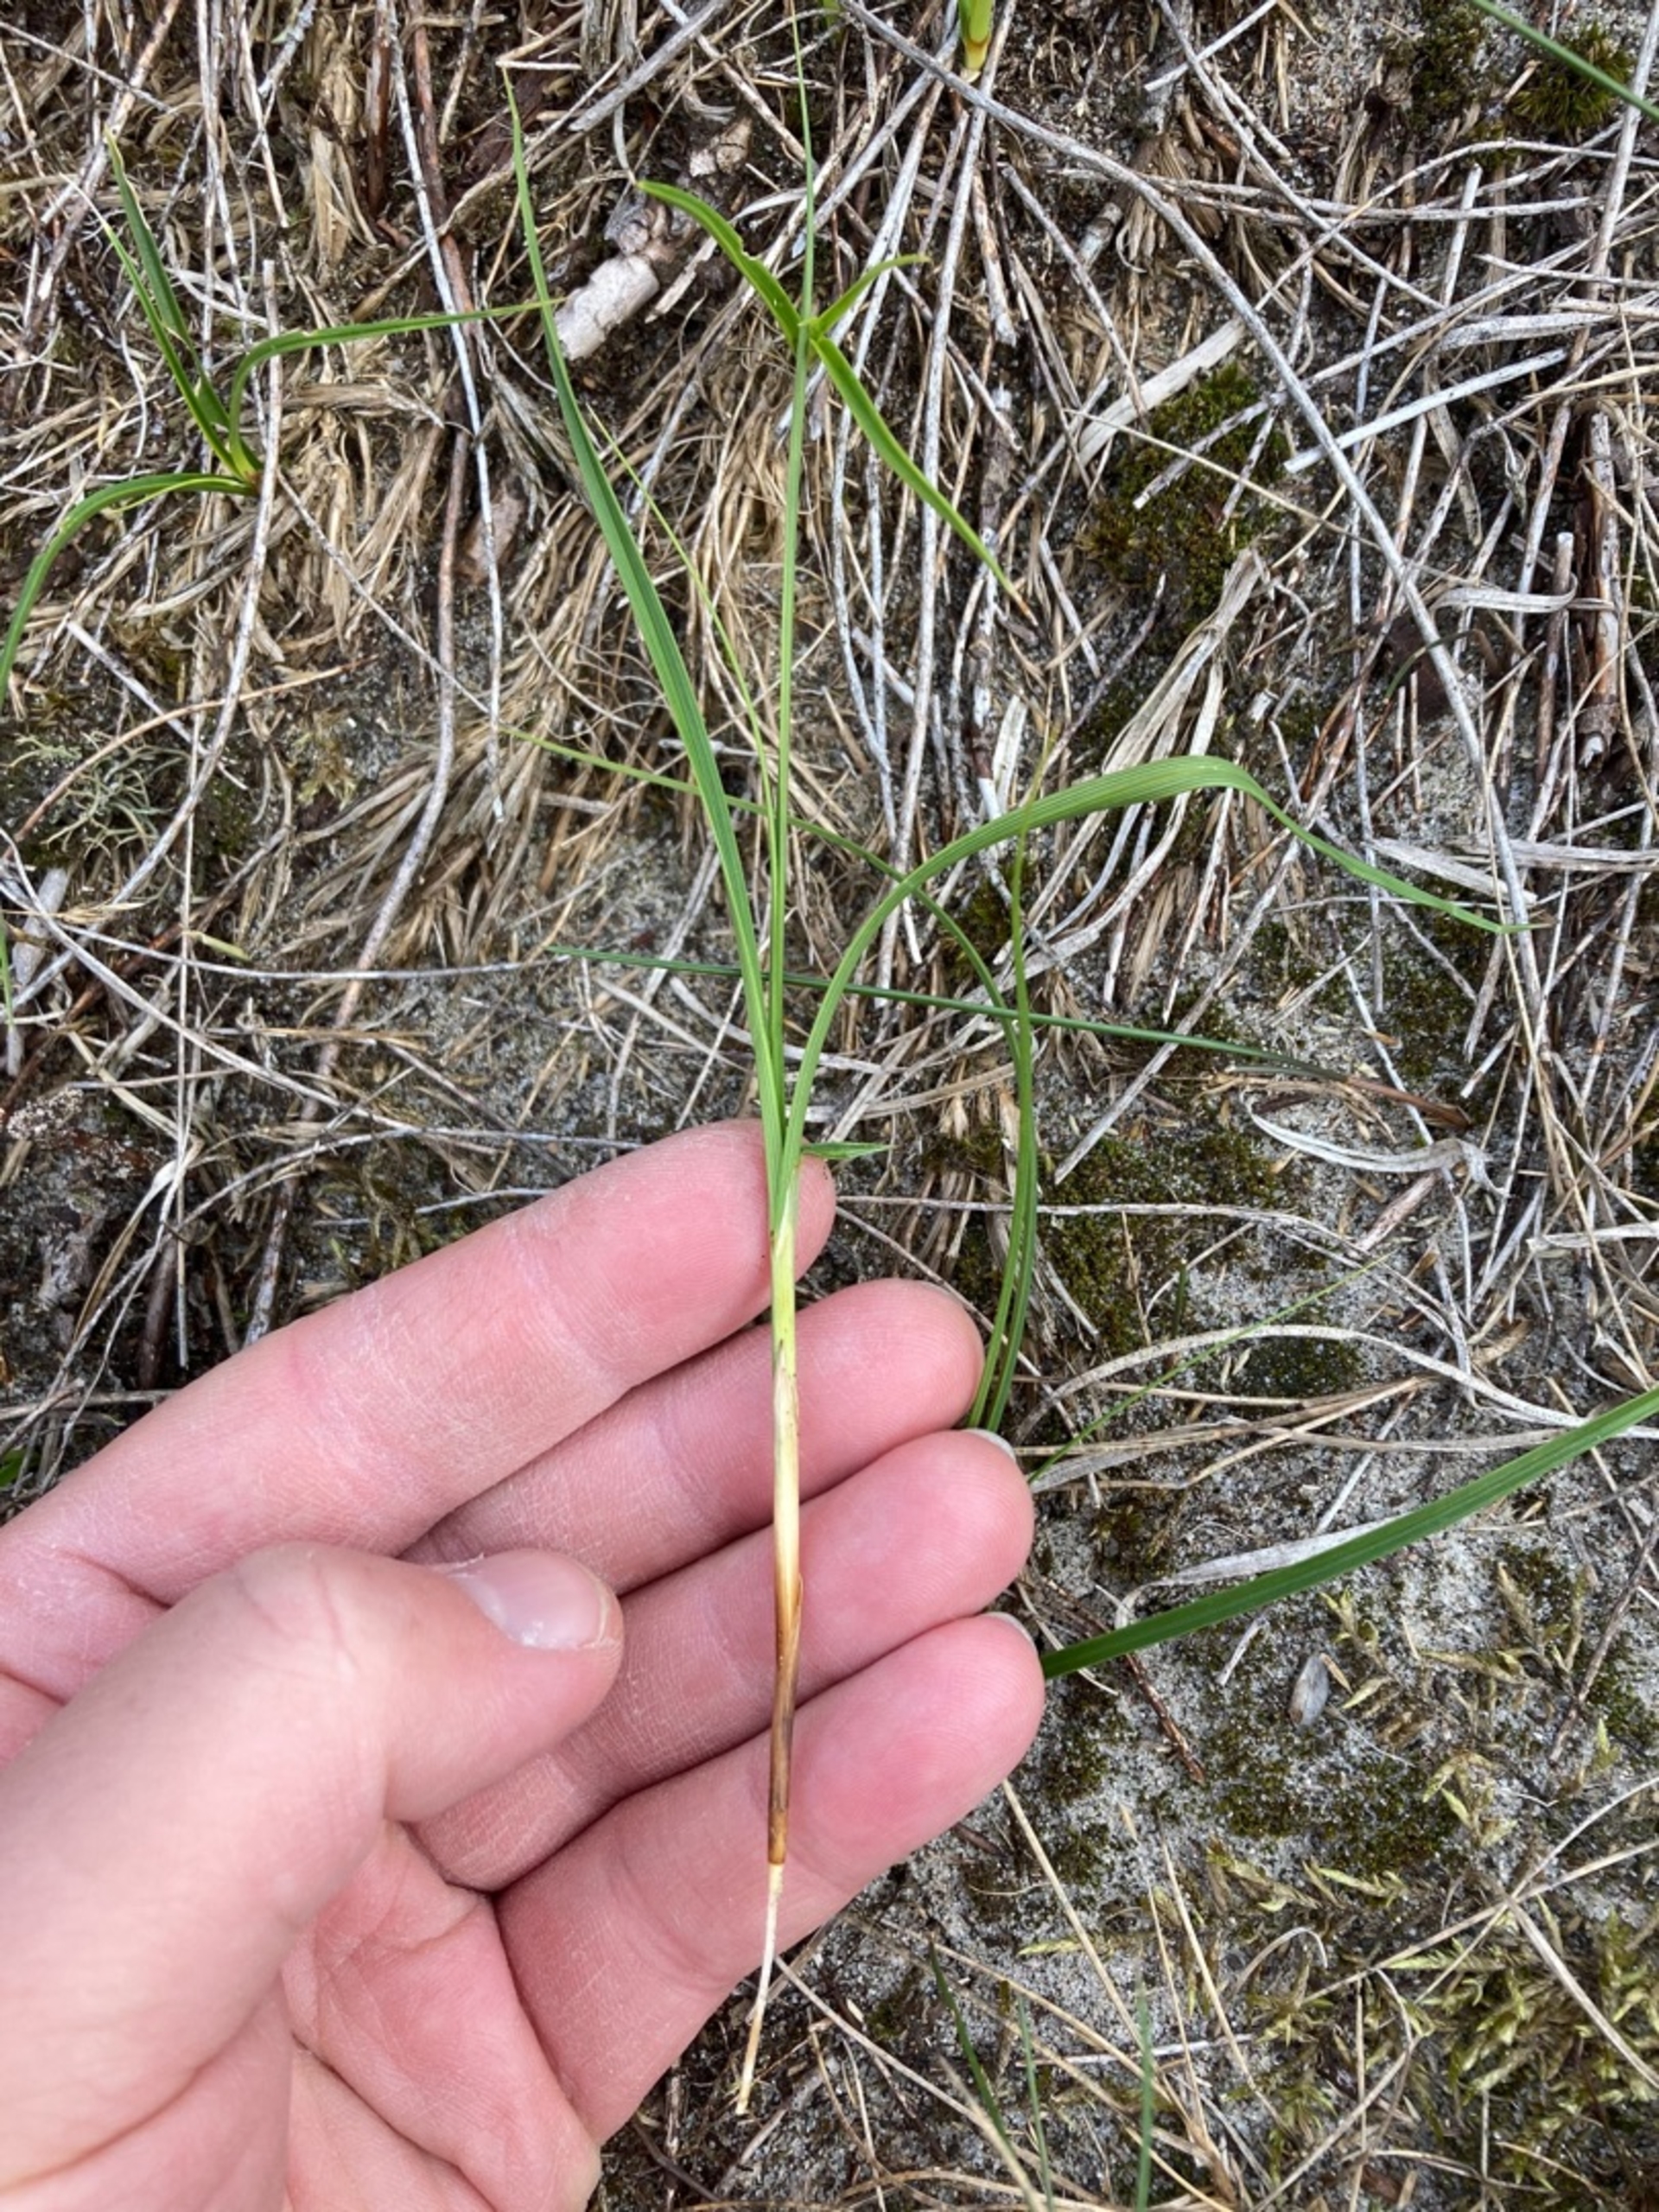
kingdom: Plantae
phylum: Tracheophyta
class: Liliopsida
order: Poales
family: Cyperaceae
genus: Carex
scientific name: Carex arenaria
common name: Sand-star
